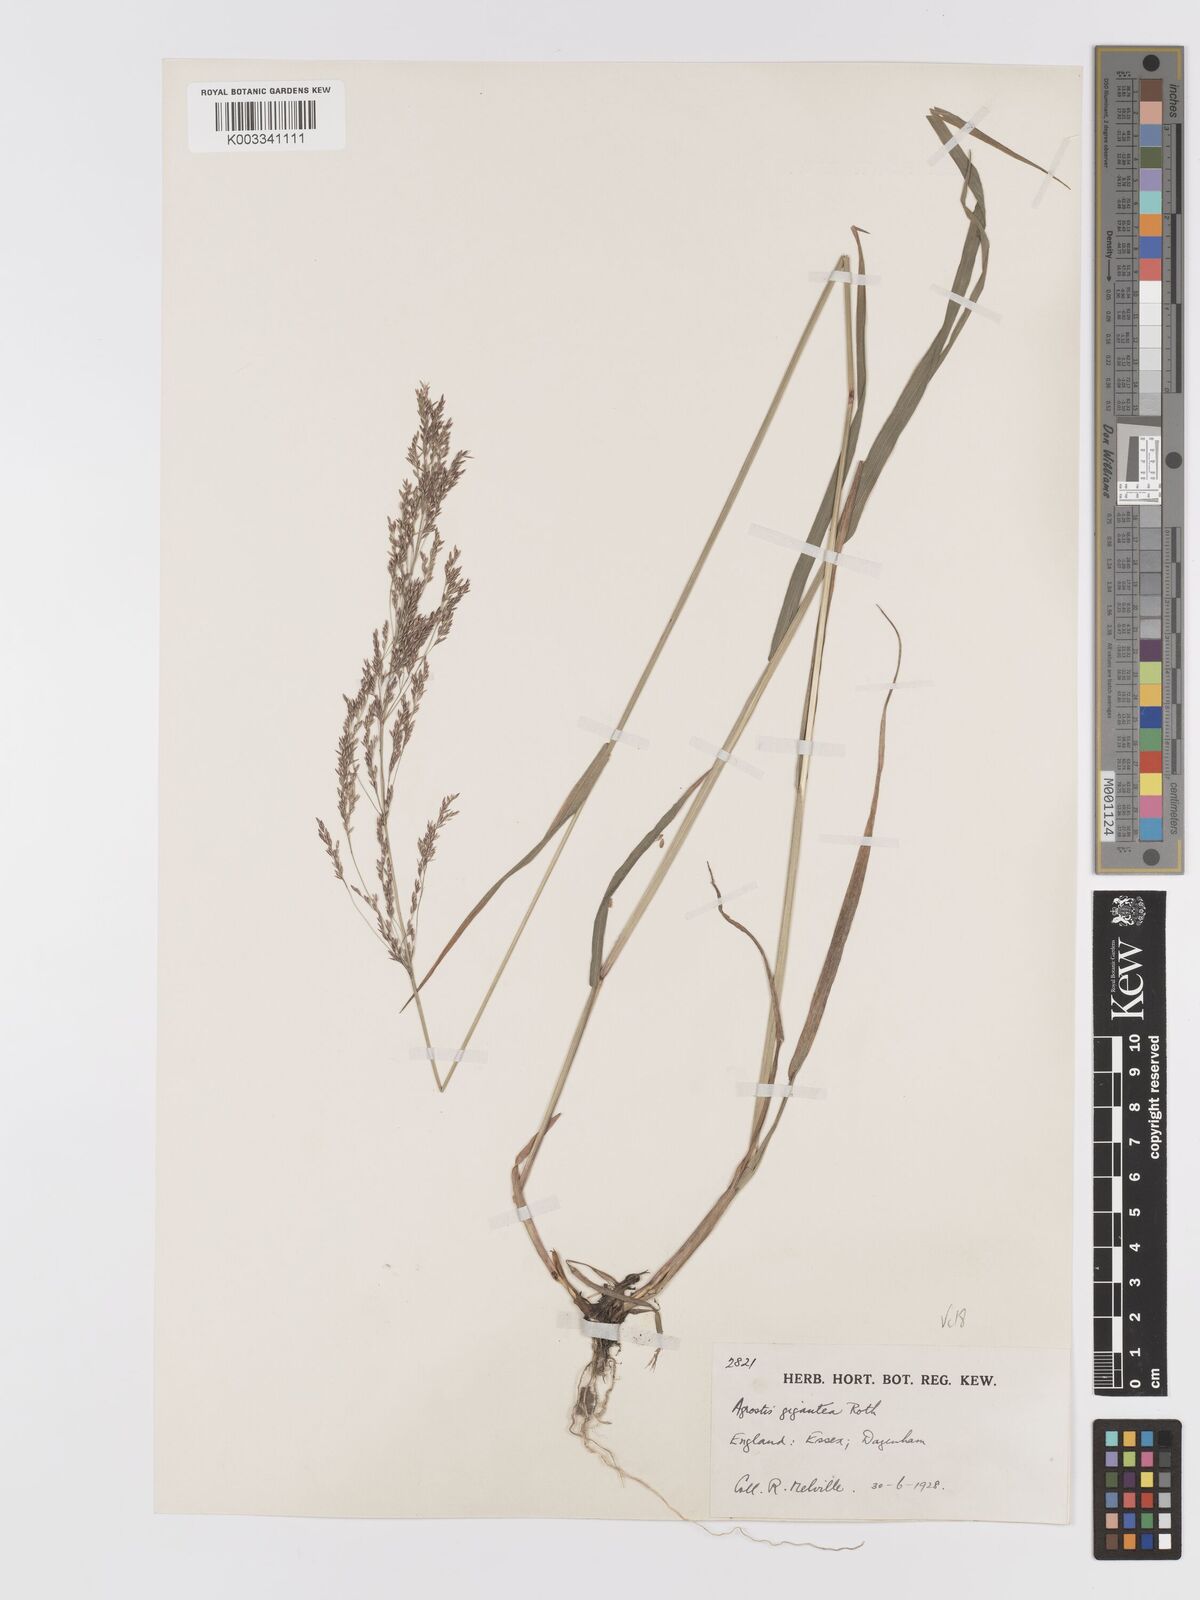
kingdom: Plantae
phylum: Tracheophyta
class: Liliopsida
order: Poales
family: Poaceae
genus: Agrostis
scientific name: Agrostis gigantea
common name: Black bent
